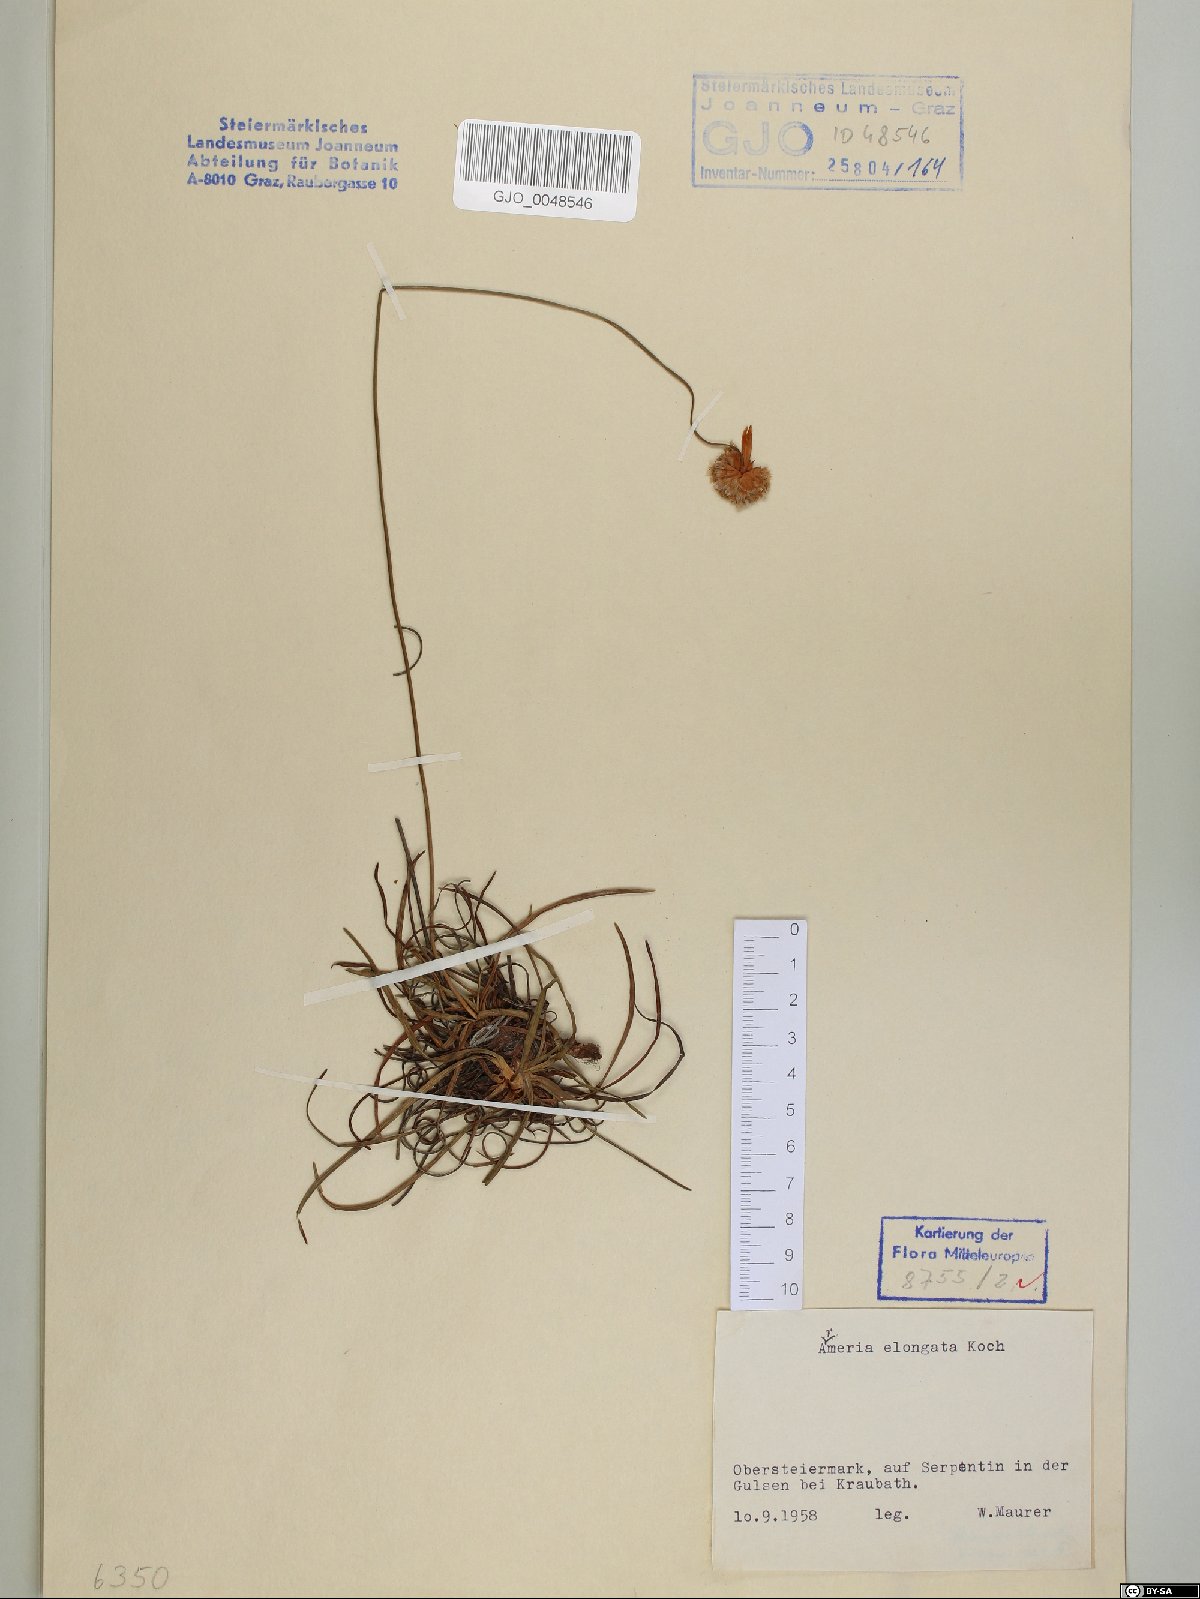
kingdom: Plantae
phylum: Tracheophyta
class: Magnoliopsida
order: Caryophyllales
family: Plumbaginaceae
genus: Armeria
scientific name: Armeria maritima
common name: Thrift
